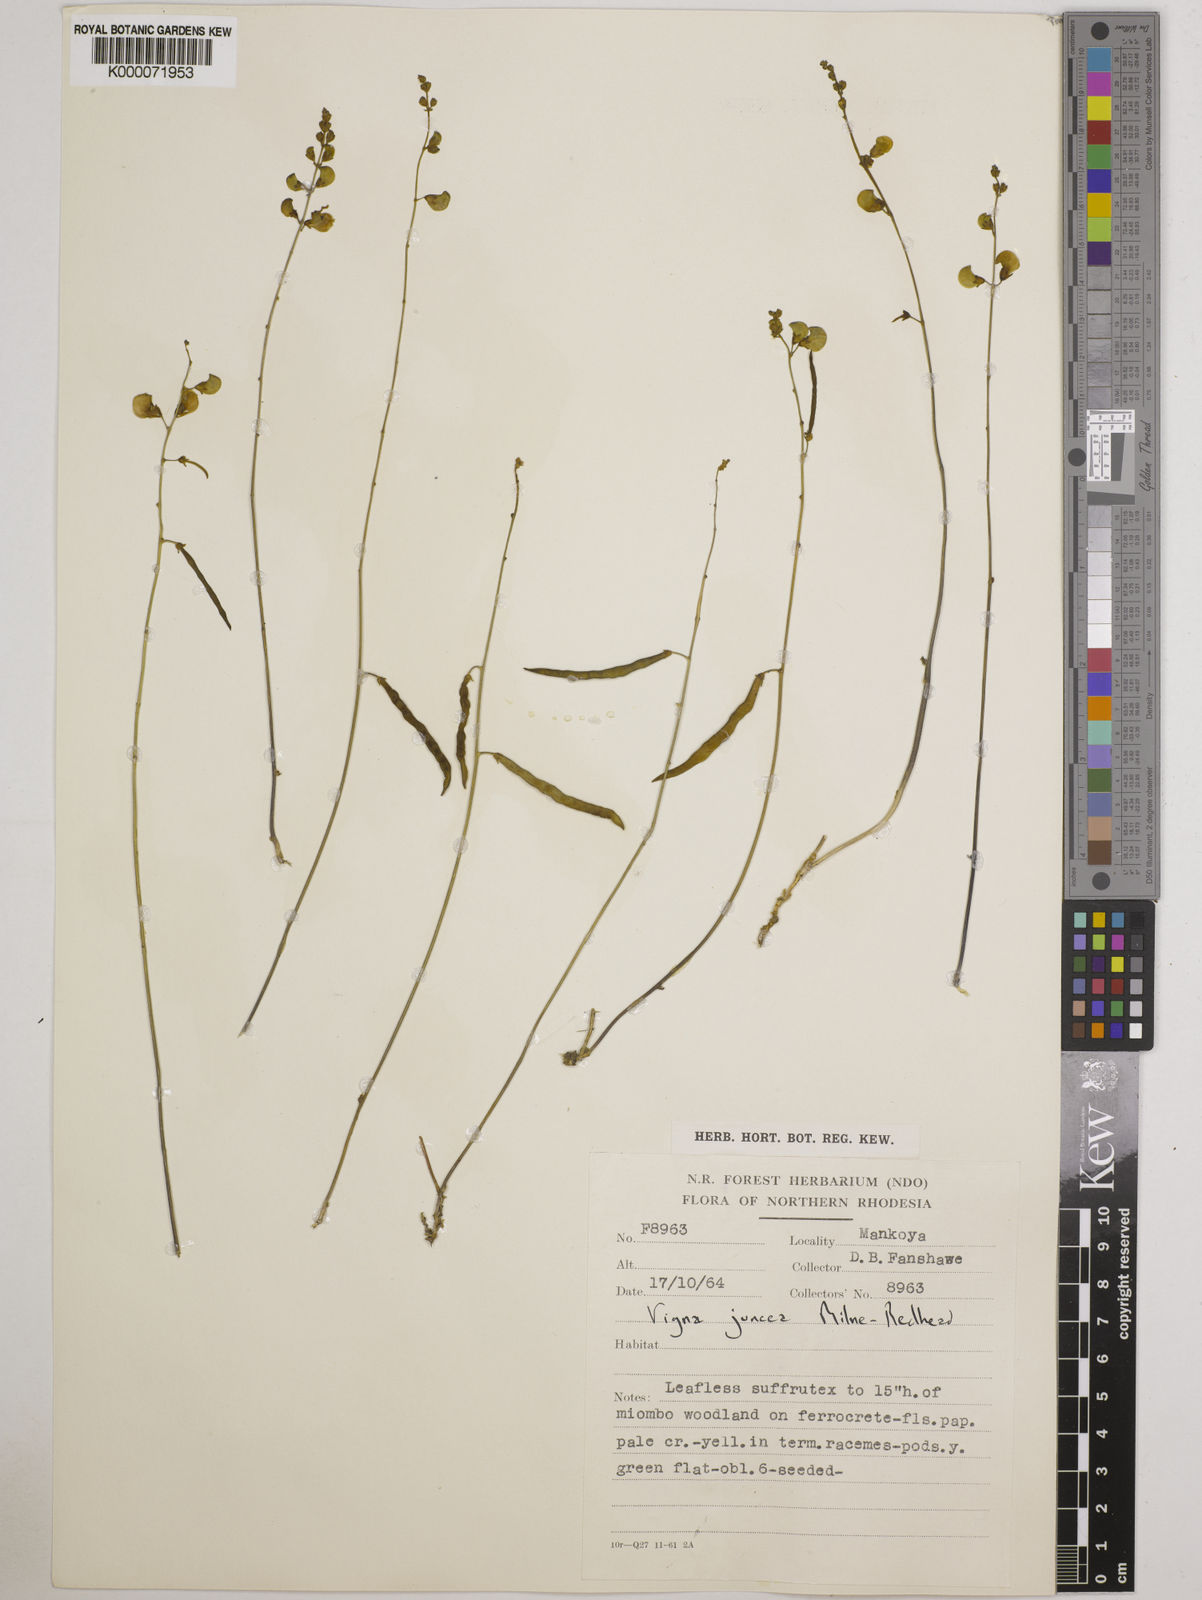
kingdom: Plantae
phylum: Tracheophyta
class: Magnoliopsida
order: Fabales
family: Fabaceae
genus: Vigna
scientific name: Vigna juncea
